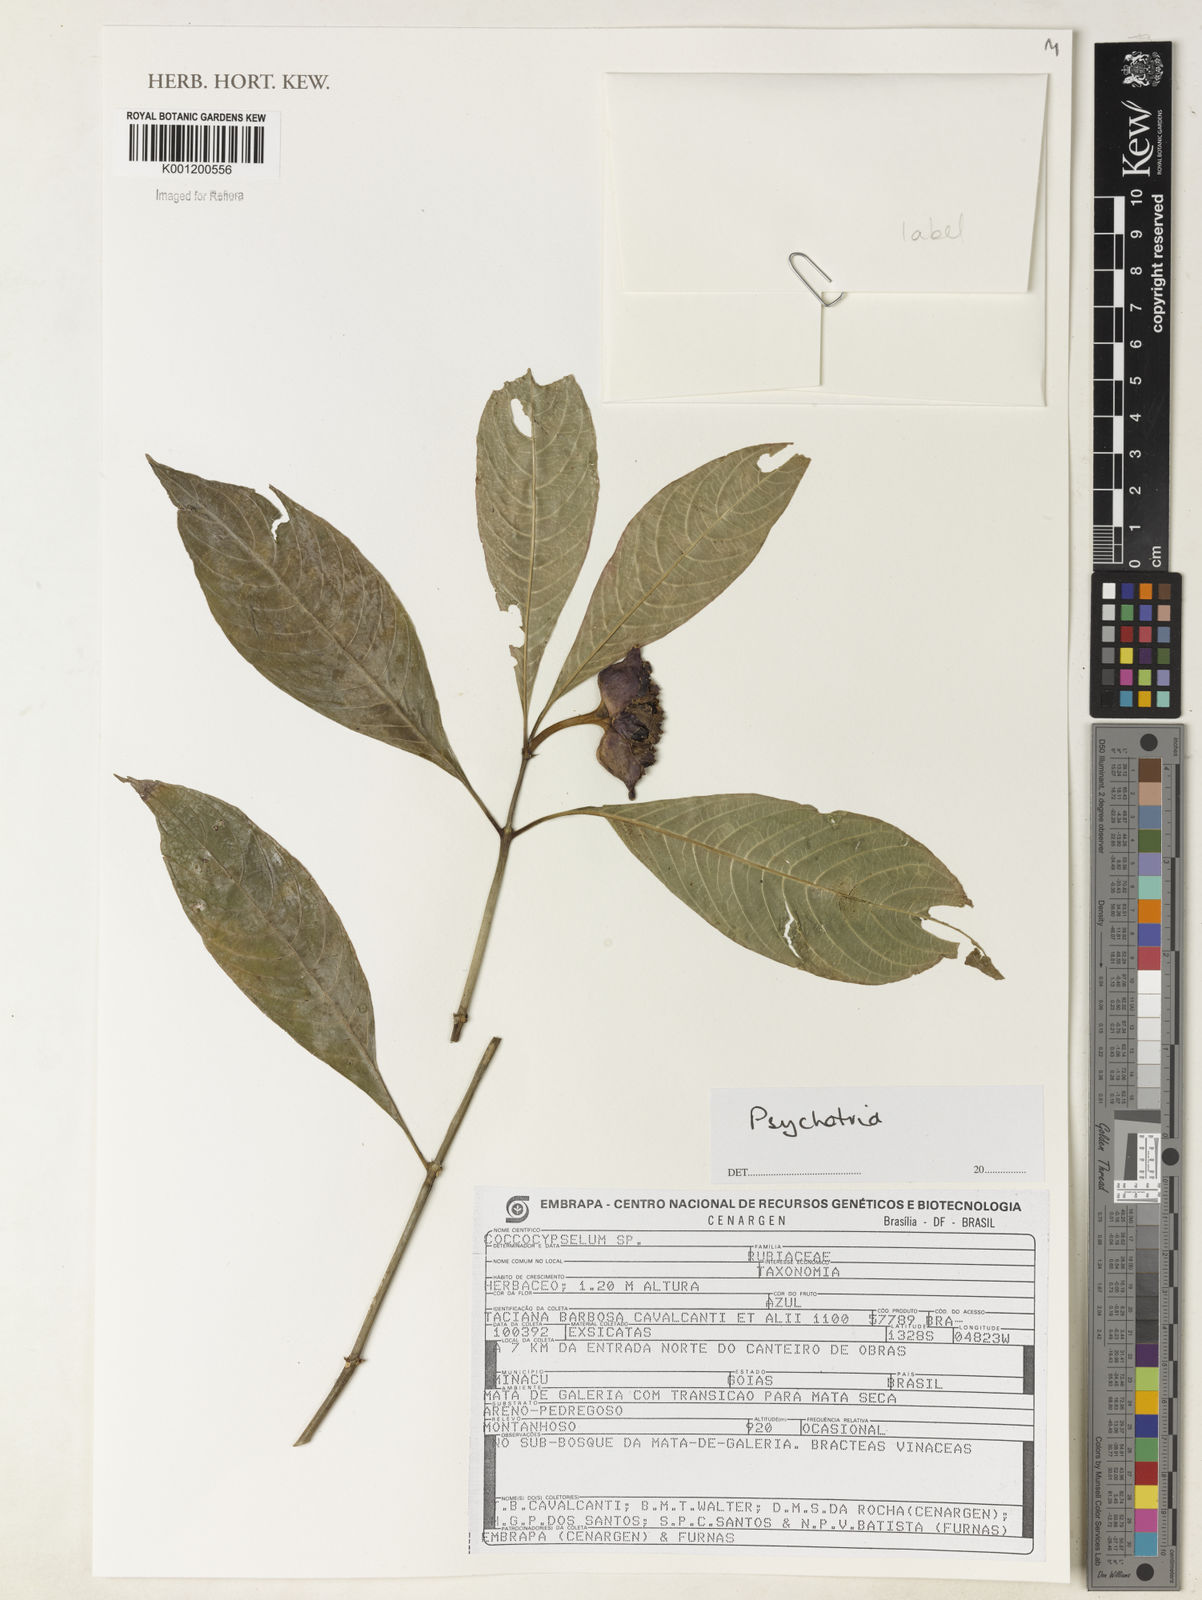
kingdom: Plantae
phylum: Tracheophyta
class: Magnoliopsida
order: Gentianales
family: Rubiaceae
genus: Psychotria
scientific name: Psychotria
